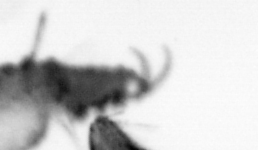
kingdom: Animalia
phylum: Annelida
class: Polychaeta
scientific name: Polychaeta
